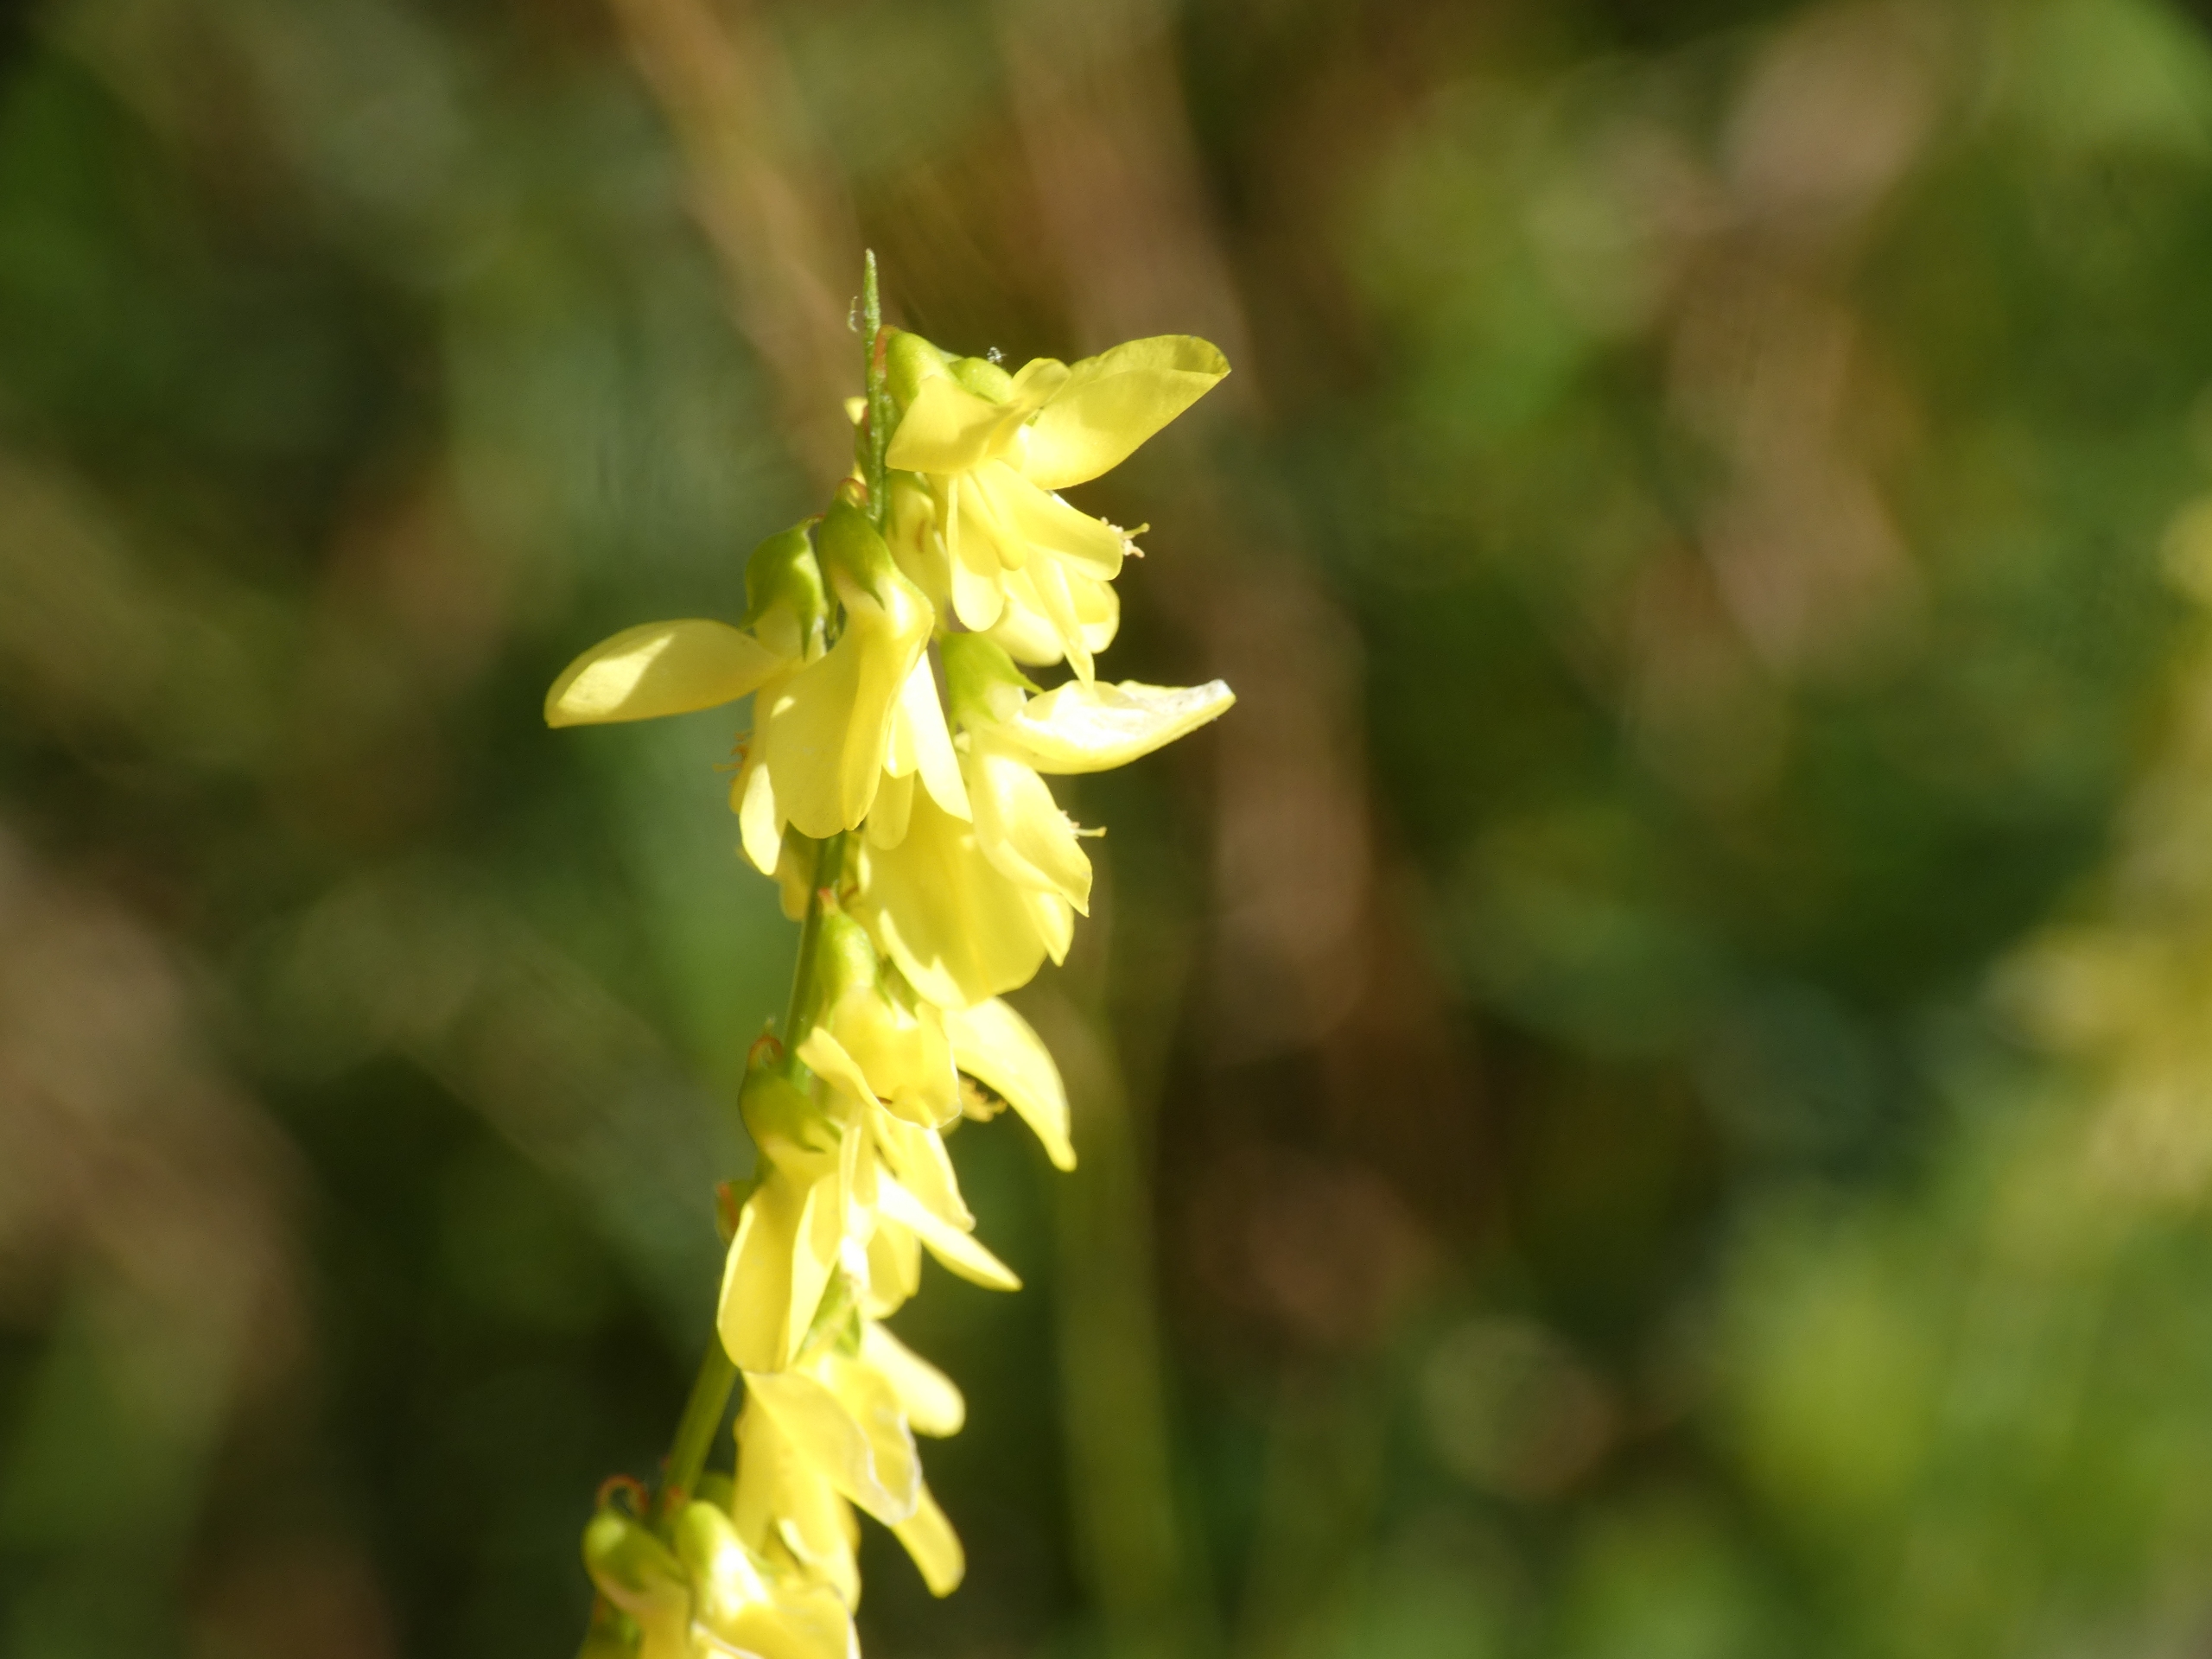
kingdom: Plantae
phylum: Tracheophyta
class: Magnoliopsida
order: Fabales
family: Fabaceae
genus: Melilotus
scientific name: Melilotus officinalis
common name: Mark-stenkløver
